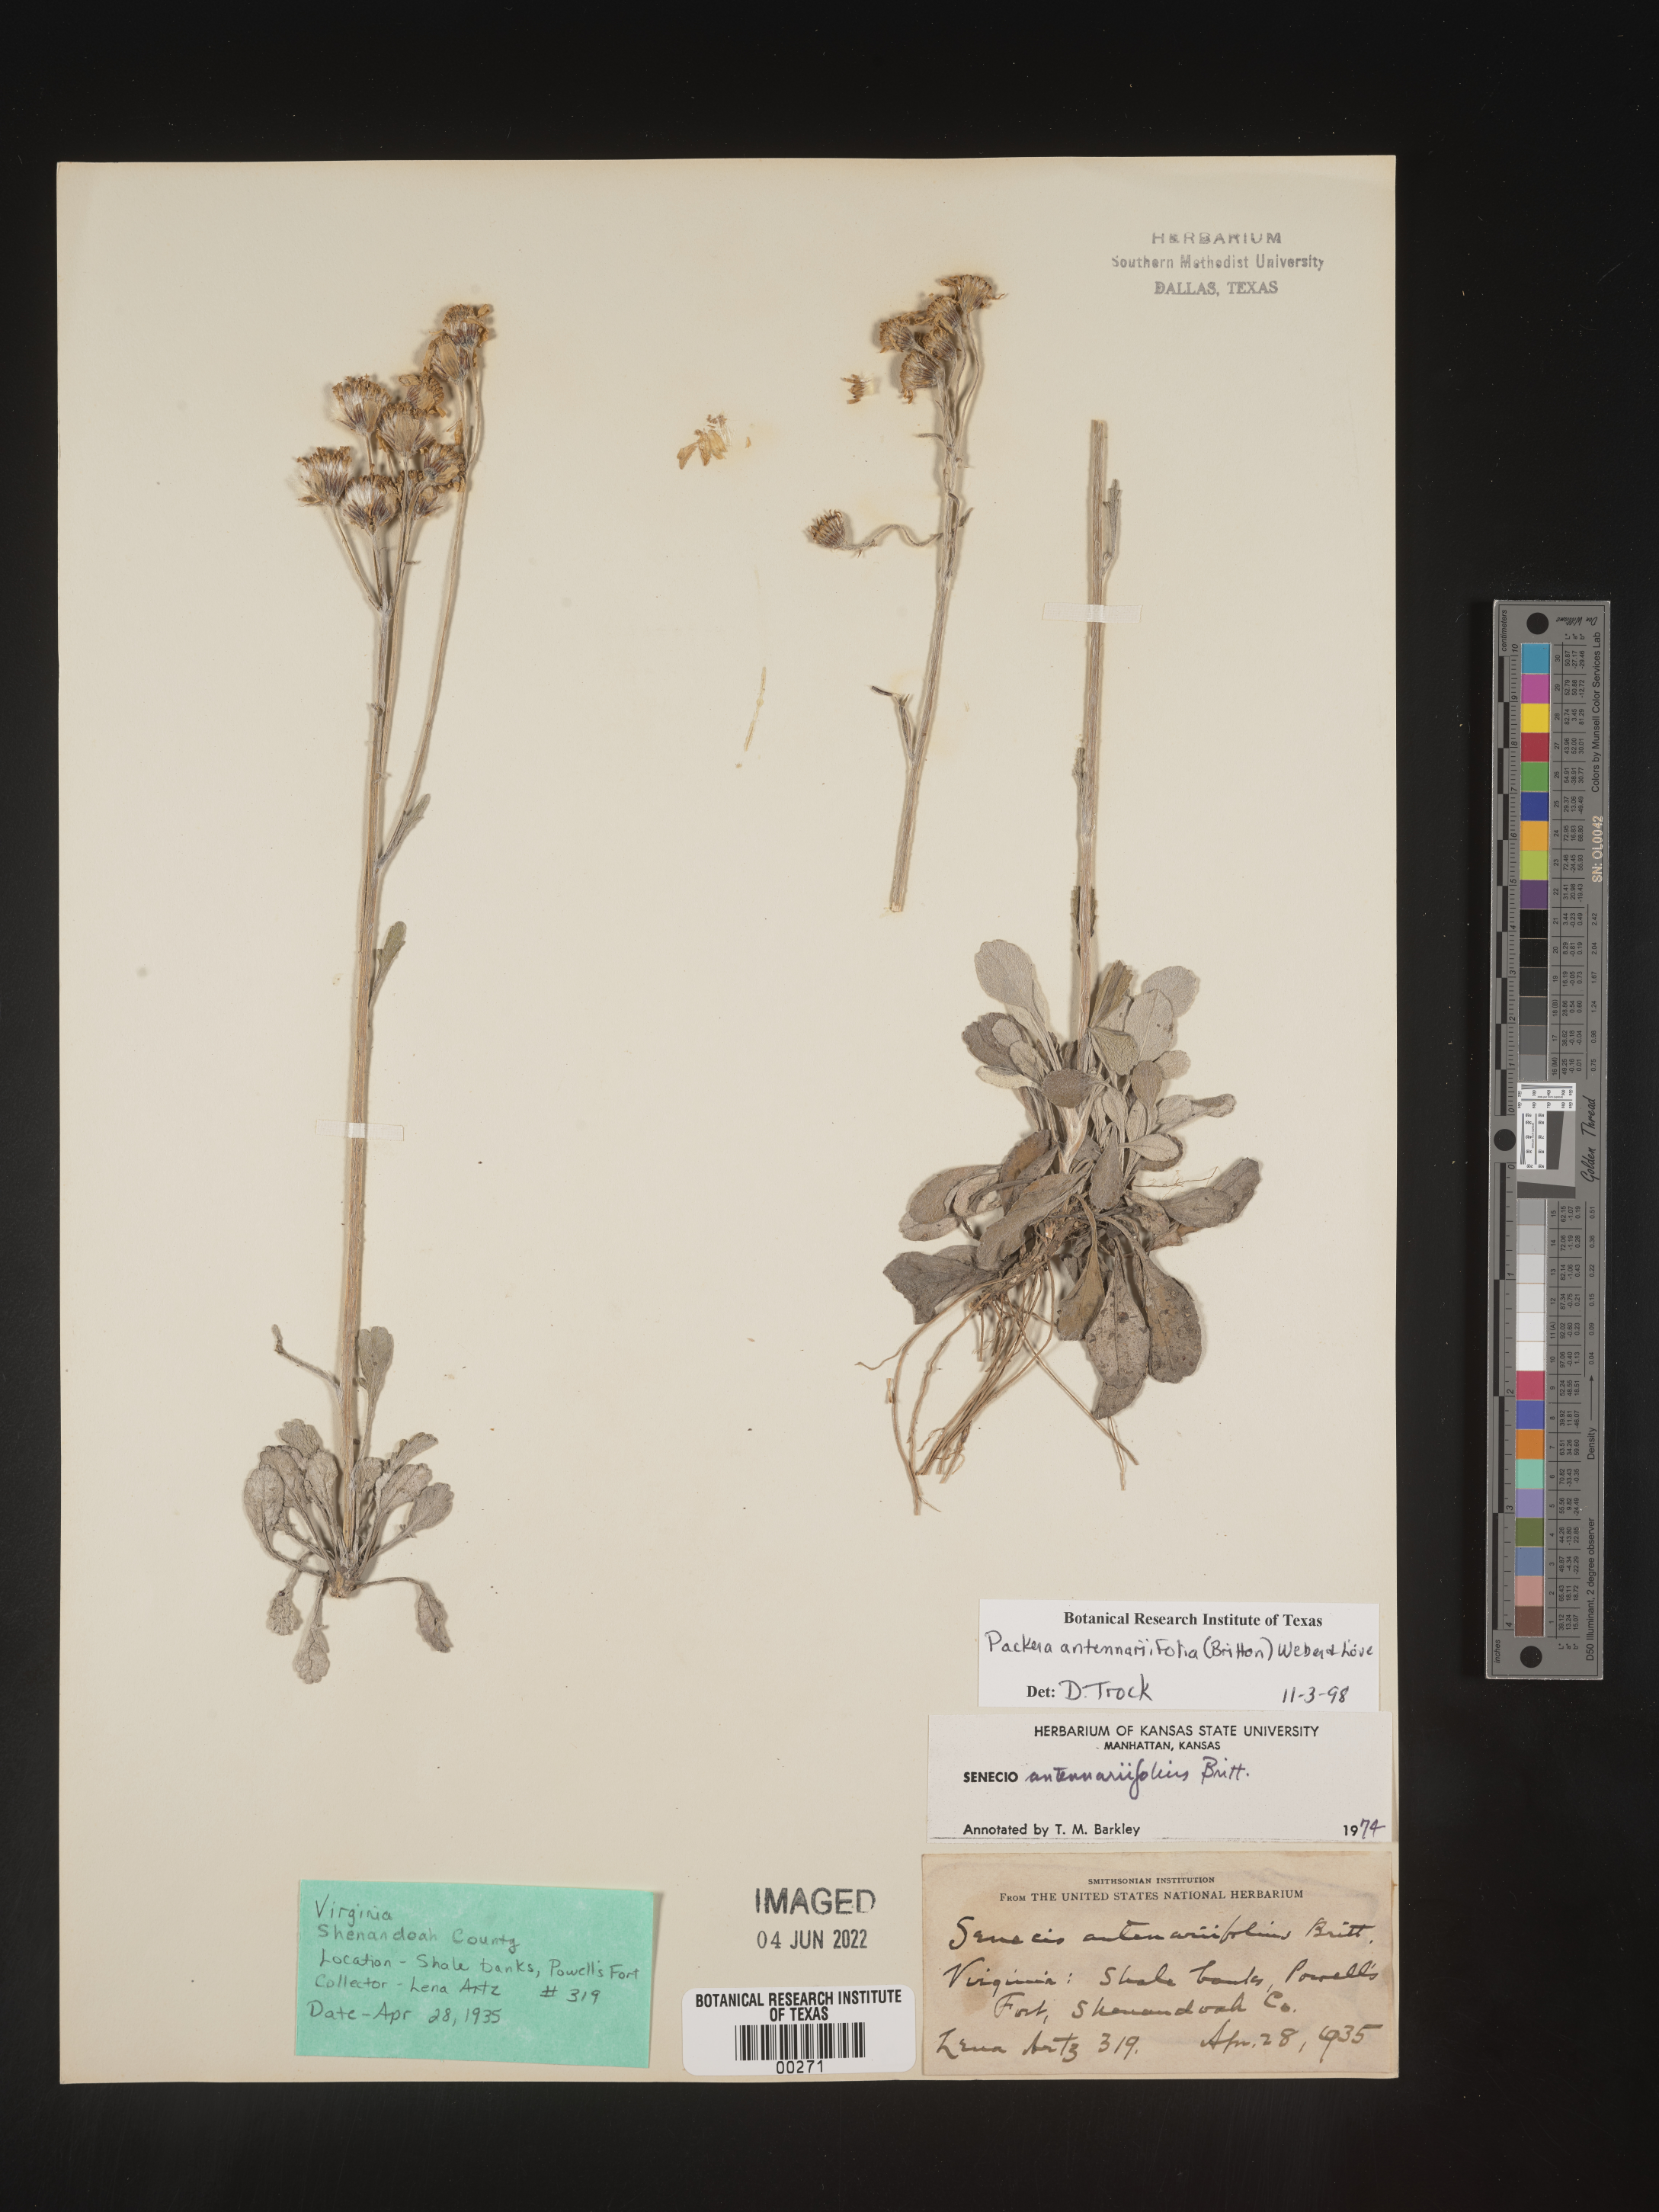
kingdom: Plantae
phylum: Tracheophyta
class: Magnoliopsida
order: Asterales
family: Asteraceae
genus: Packera
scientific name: Packera antennariifolia
